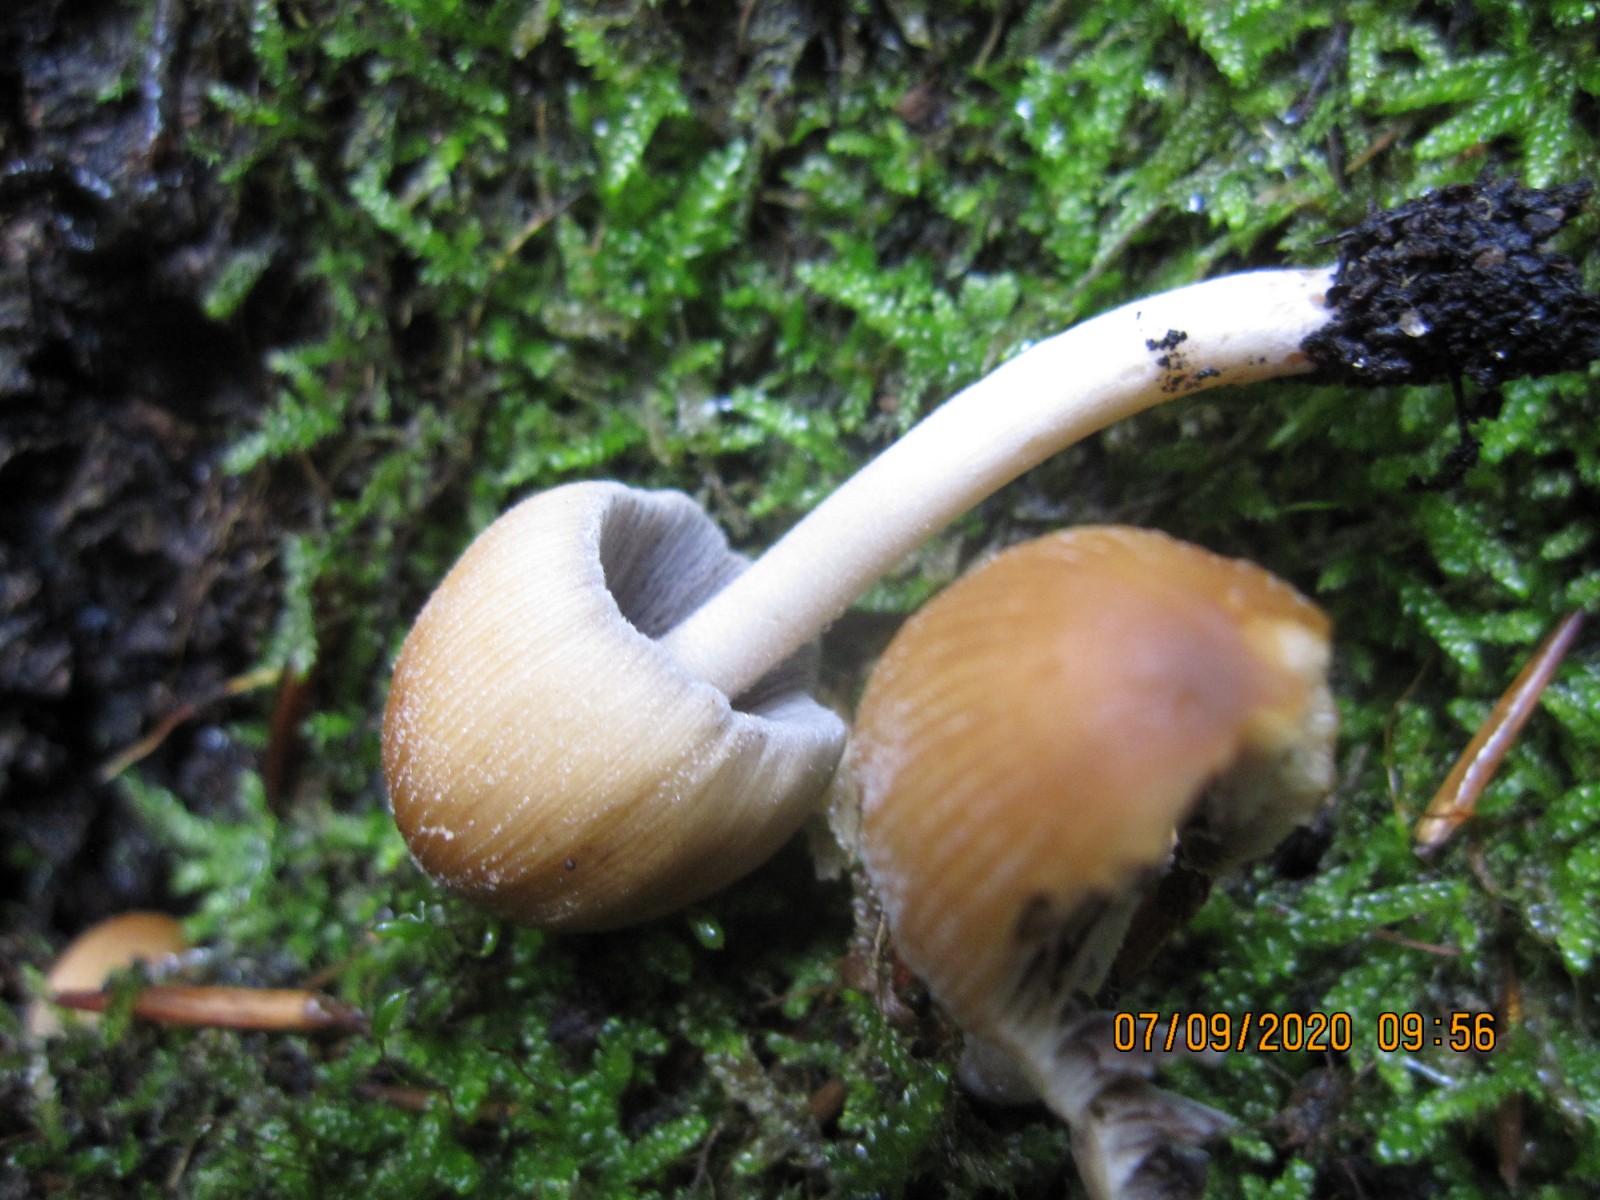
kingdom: Fungi
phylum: Basidiomycota
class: Agaricomycetes
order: Agaricales
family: Psathyrellaceae
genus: Coprinellus
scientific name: Coprinellus micaceus
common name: glimmer-blækhat
